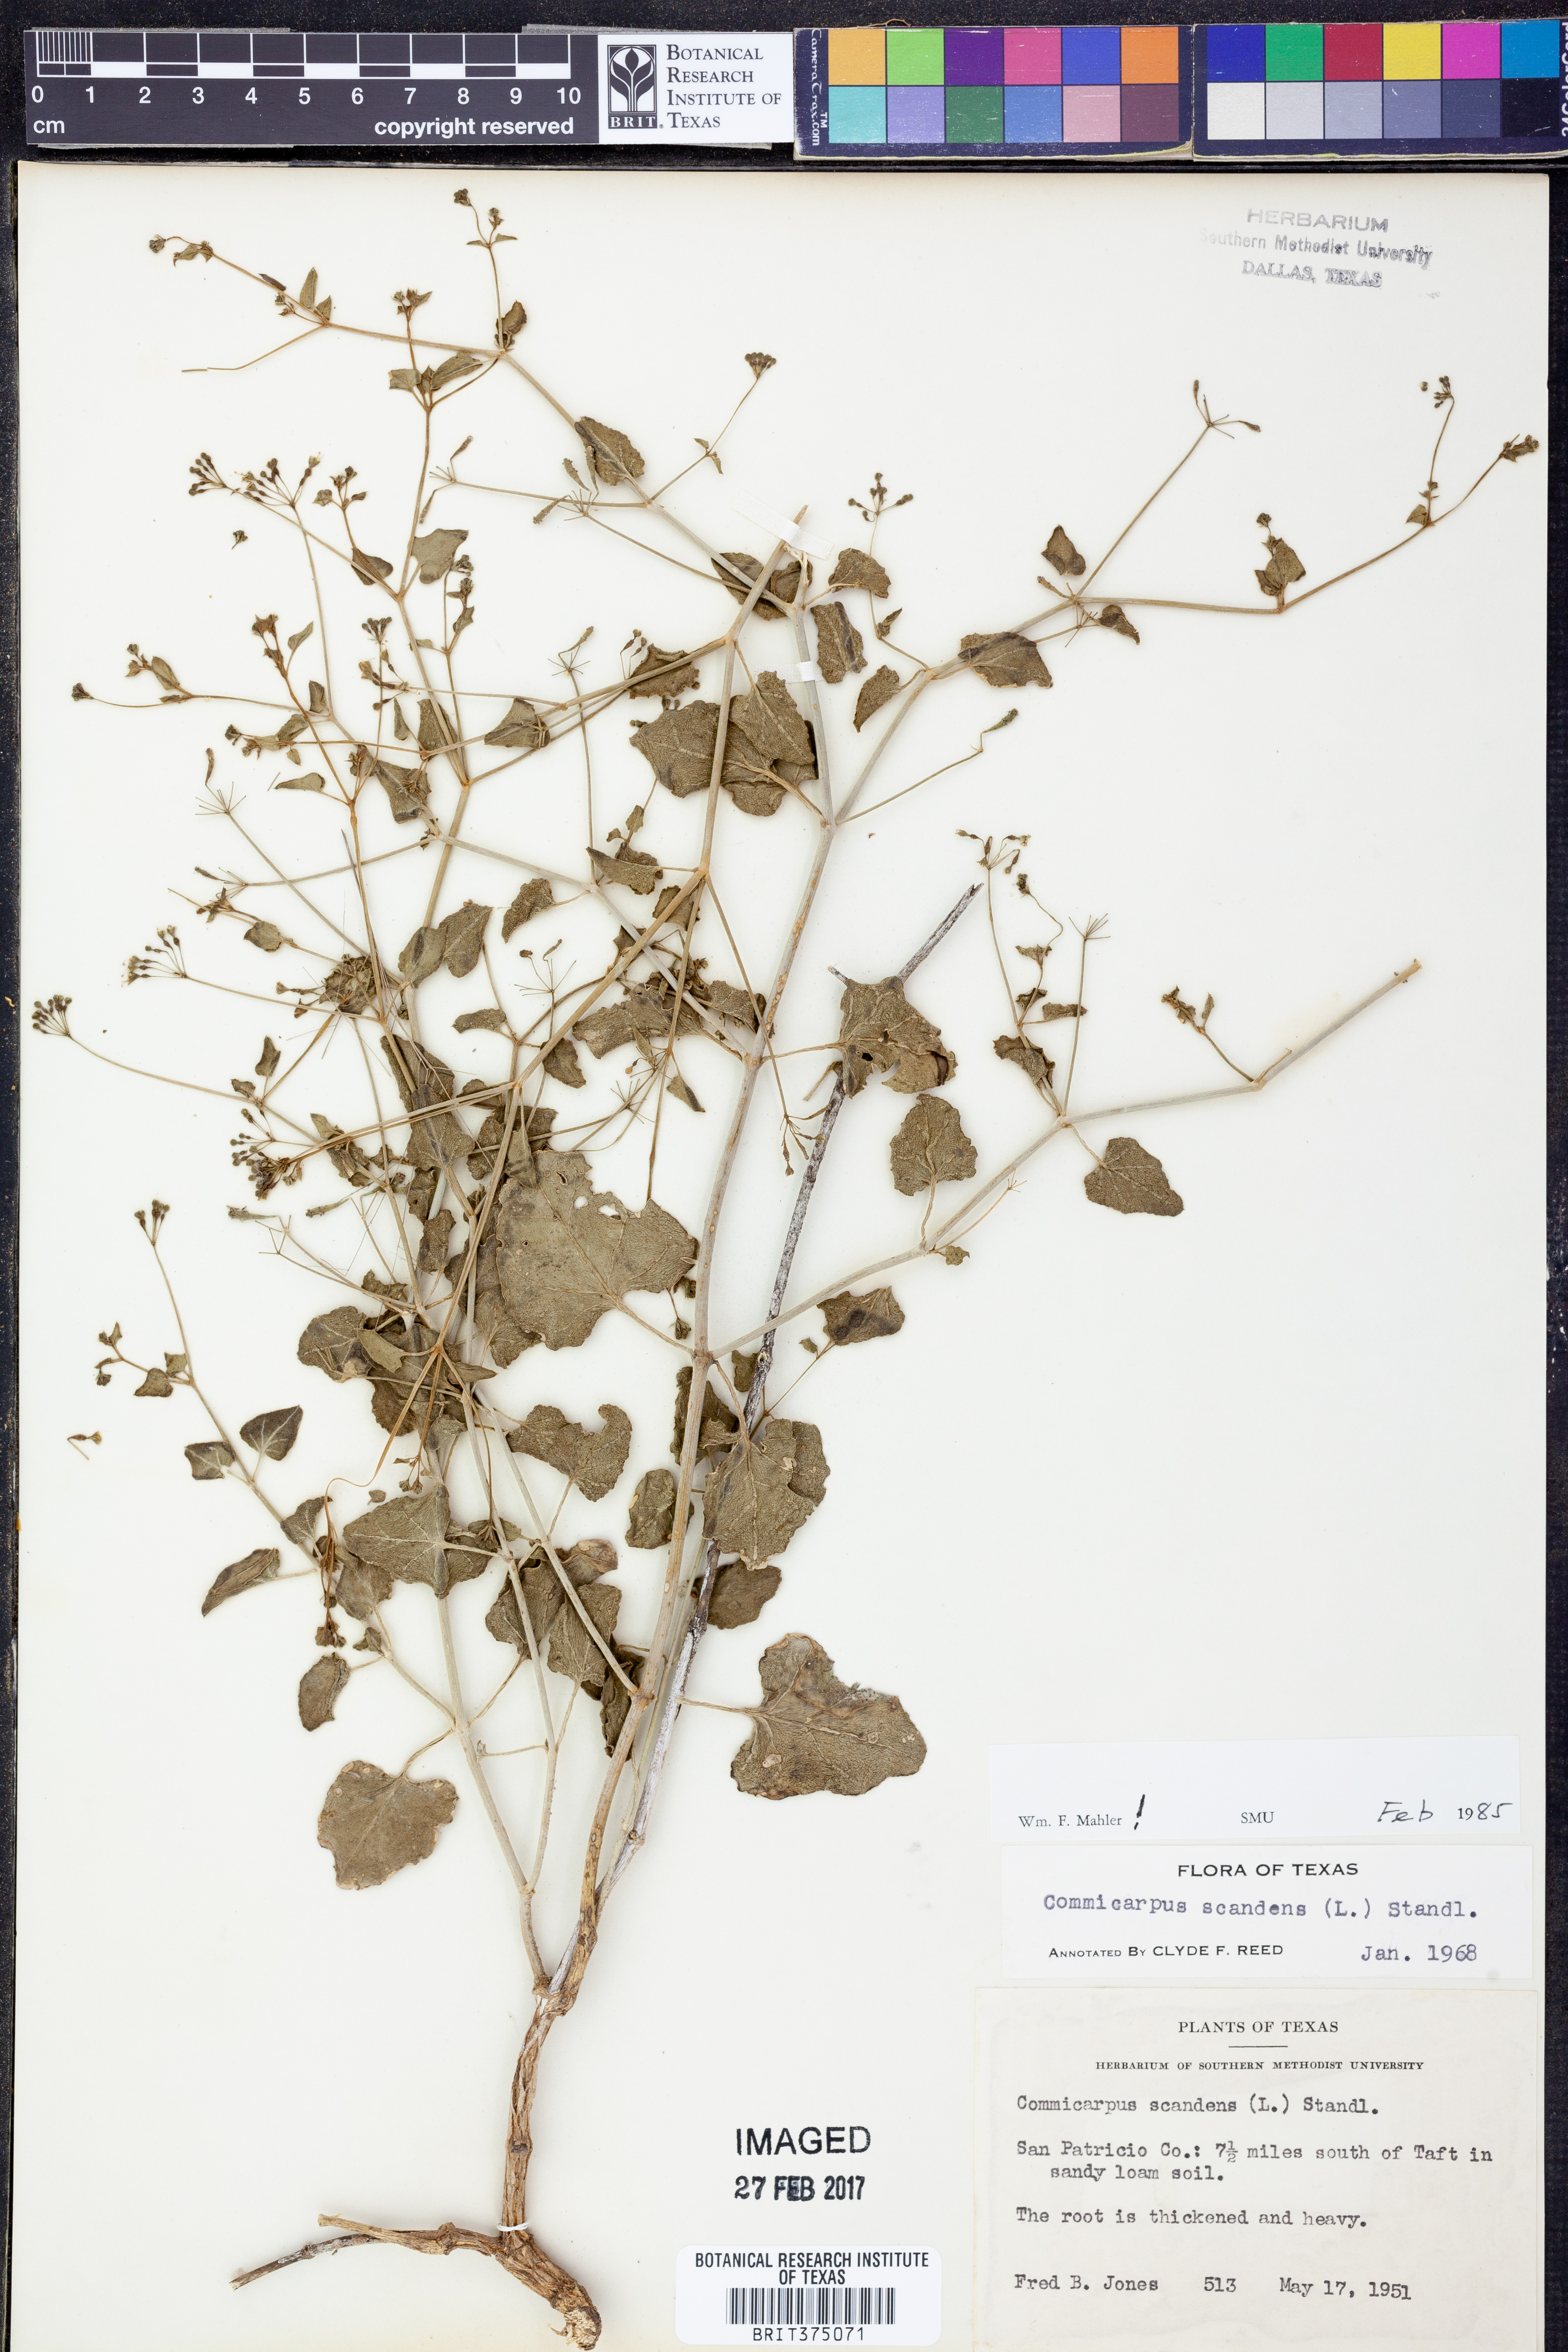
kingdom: Plantae
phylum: Tracheophyta
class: Magnoliopsida
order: Caryophyllales
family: Nyctaginaceae
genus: Commicarpus
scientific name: Commicarpus scandens
